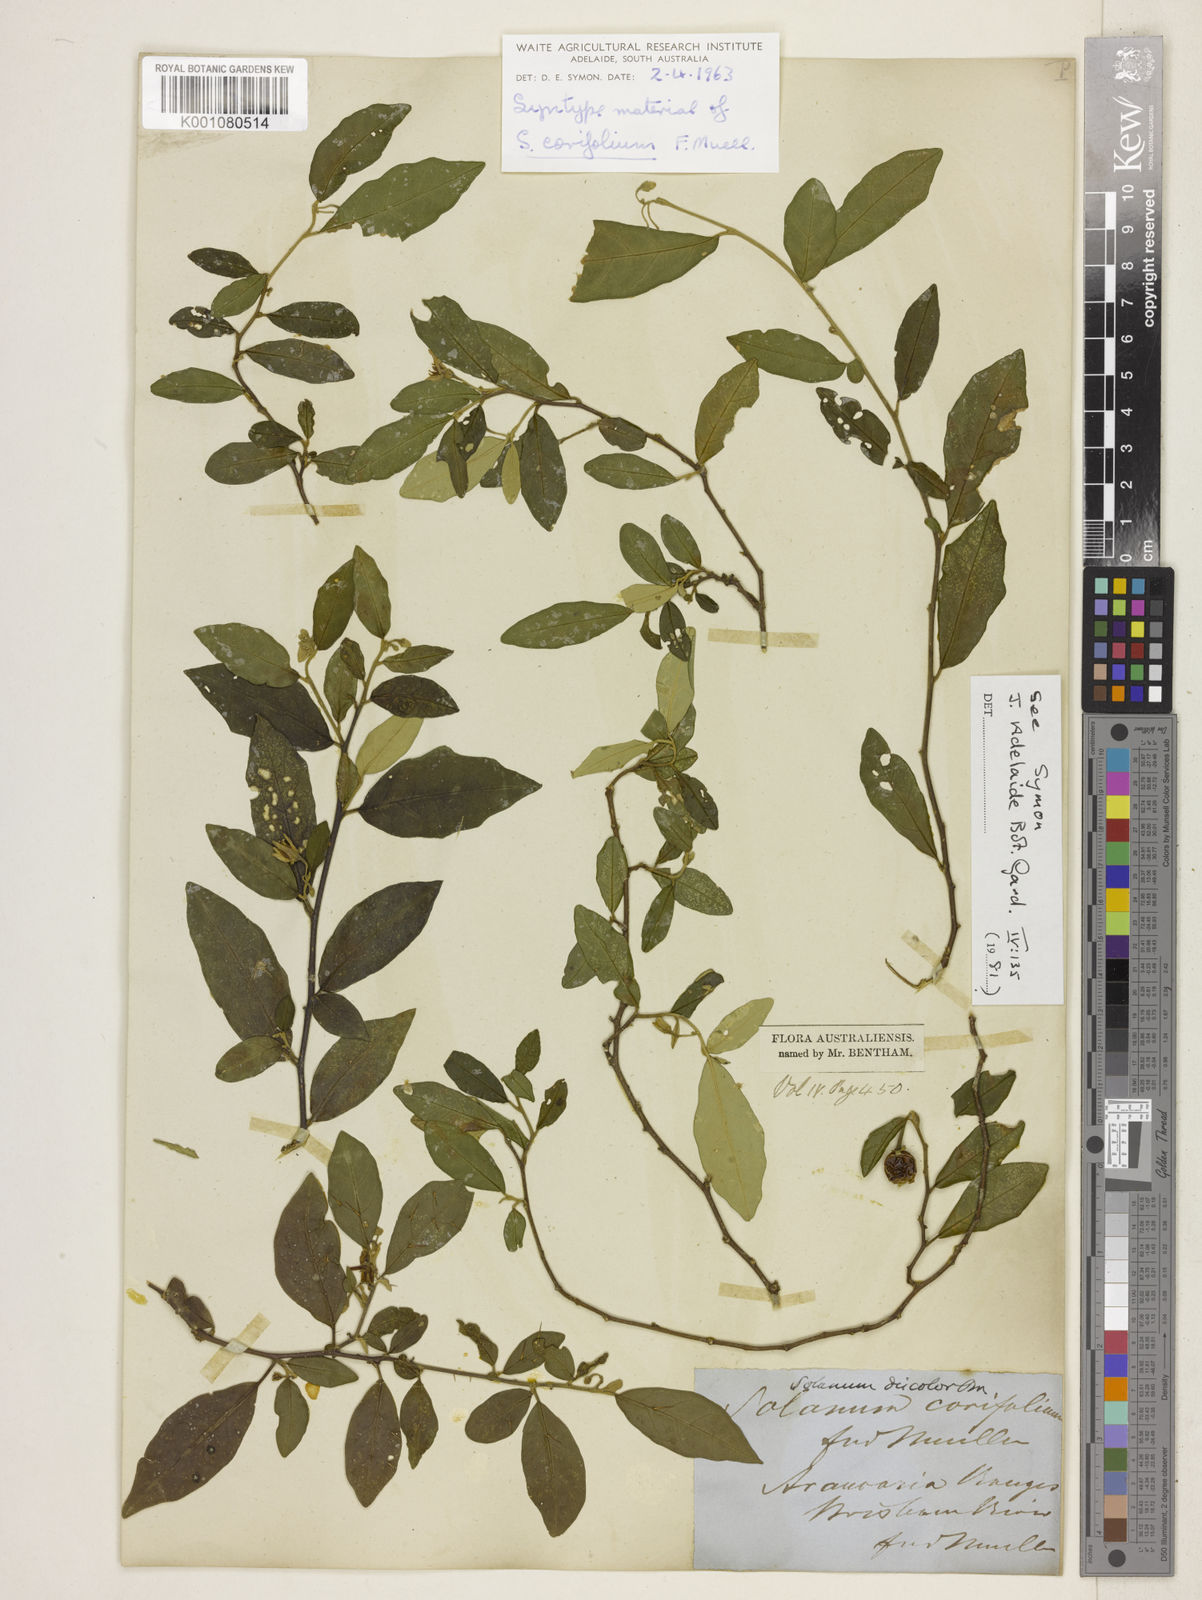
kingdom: Plantae
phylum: Tracheophyta
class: Magnoliopsida
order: Solanales
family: Solanaceae
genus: Solanum
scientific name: Solanum corifolium
